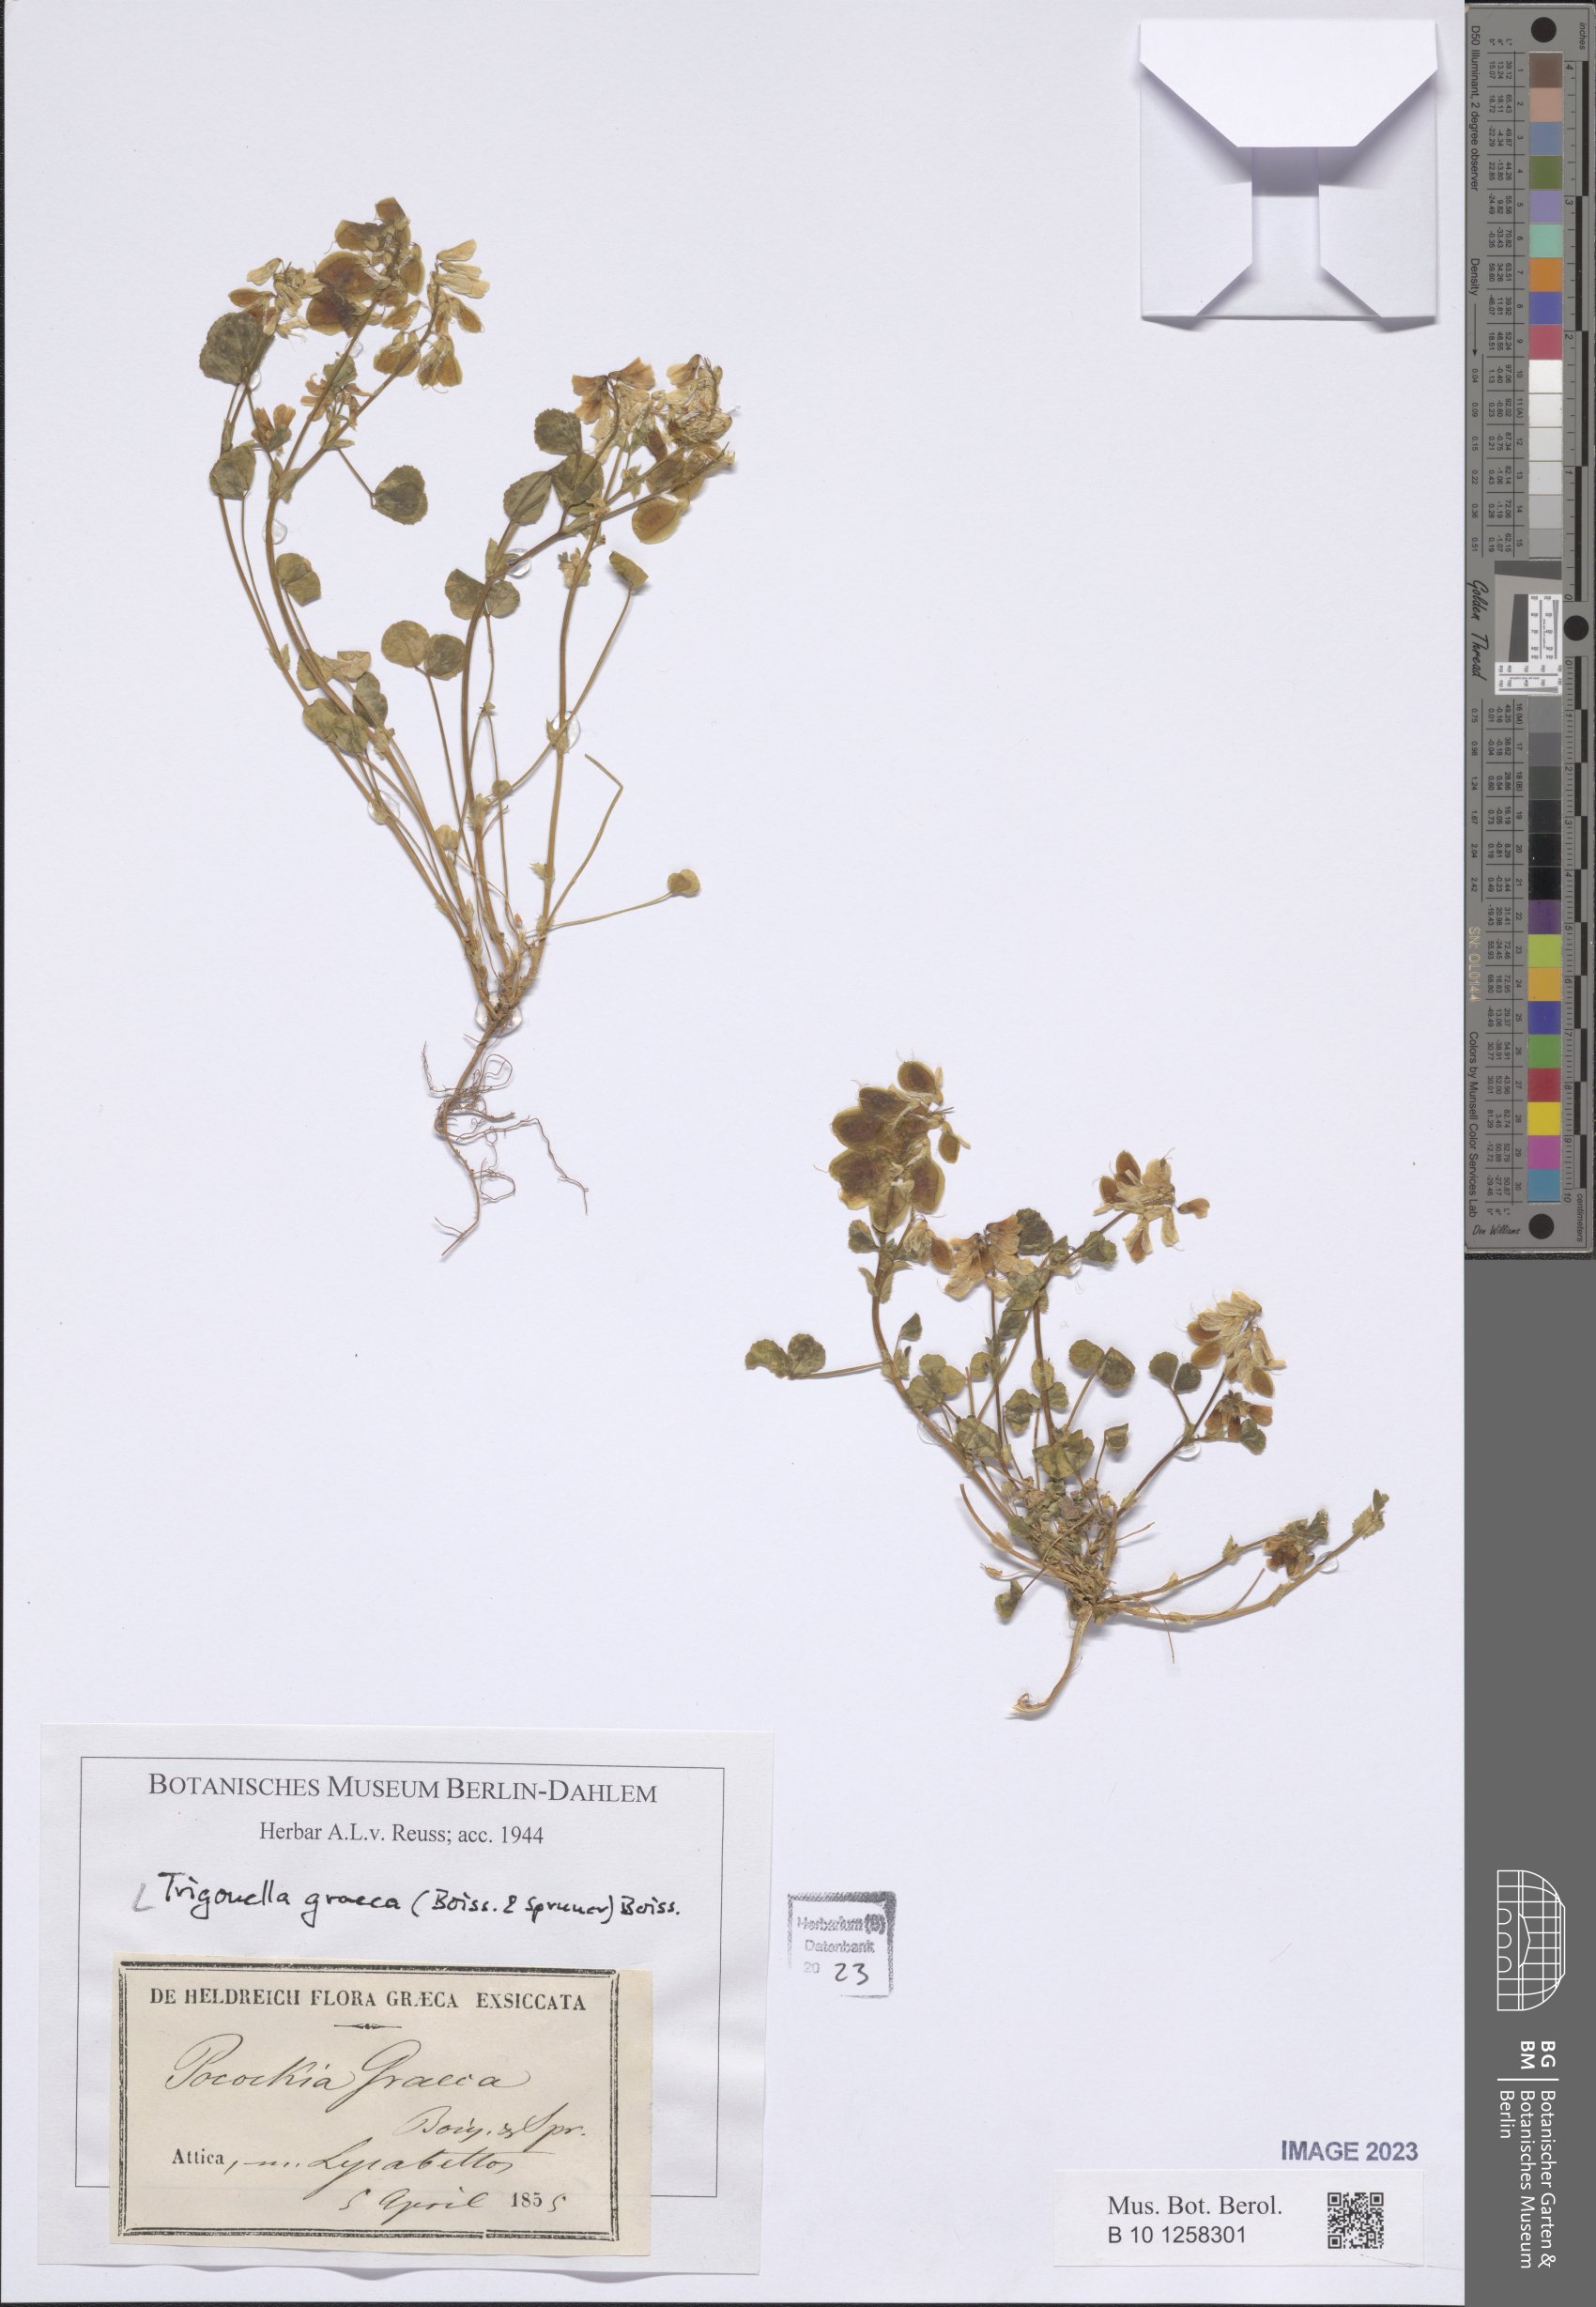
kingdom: Plantae
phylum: Tracheophyta
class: Magnoliopsida
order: Fabales
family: Fabaceae
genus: Trigonella
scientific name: Trigonella graeca
